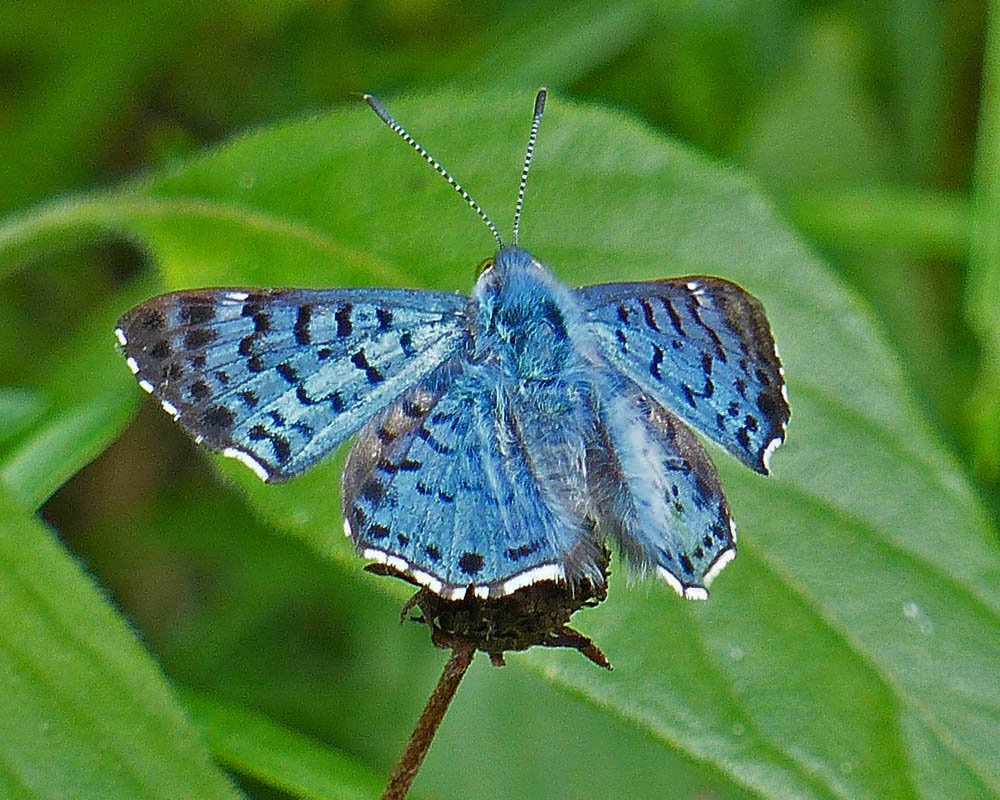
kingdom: Animalia
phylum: Arthropoda
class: Insecta
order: Lepidoptera
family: Riodinidae
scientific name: Riodinidae
